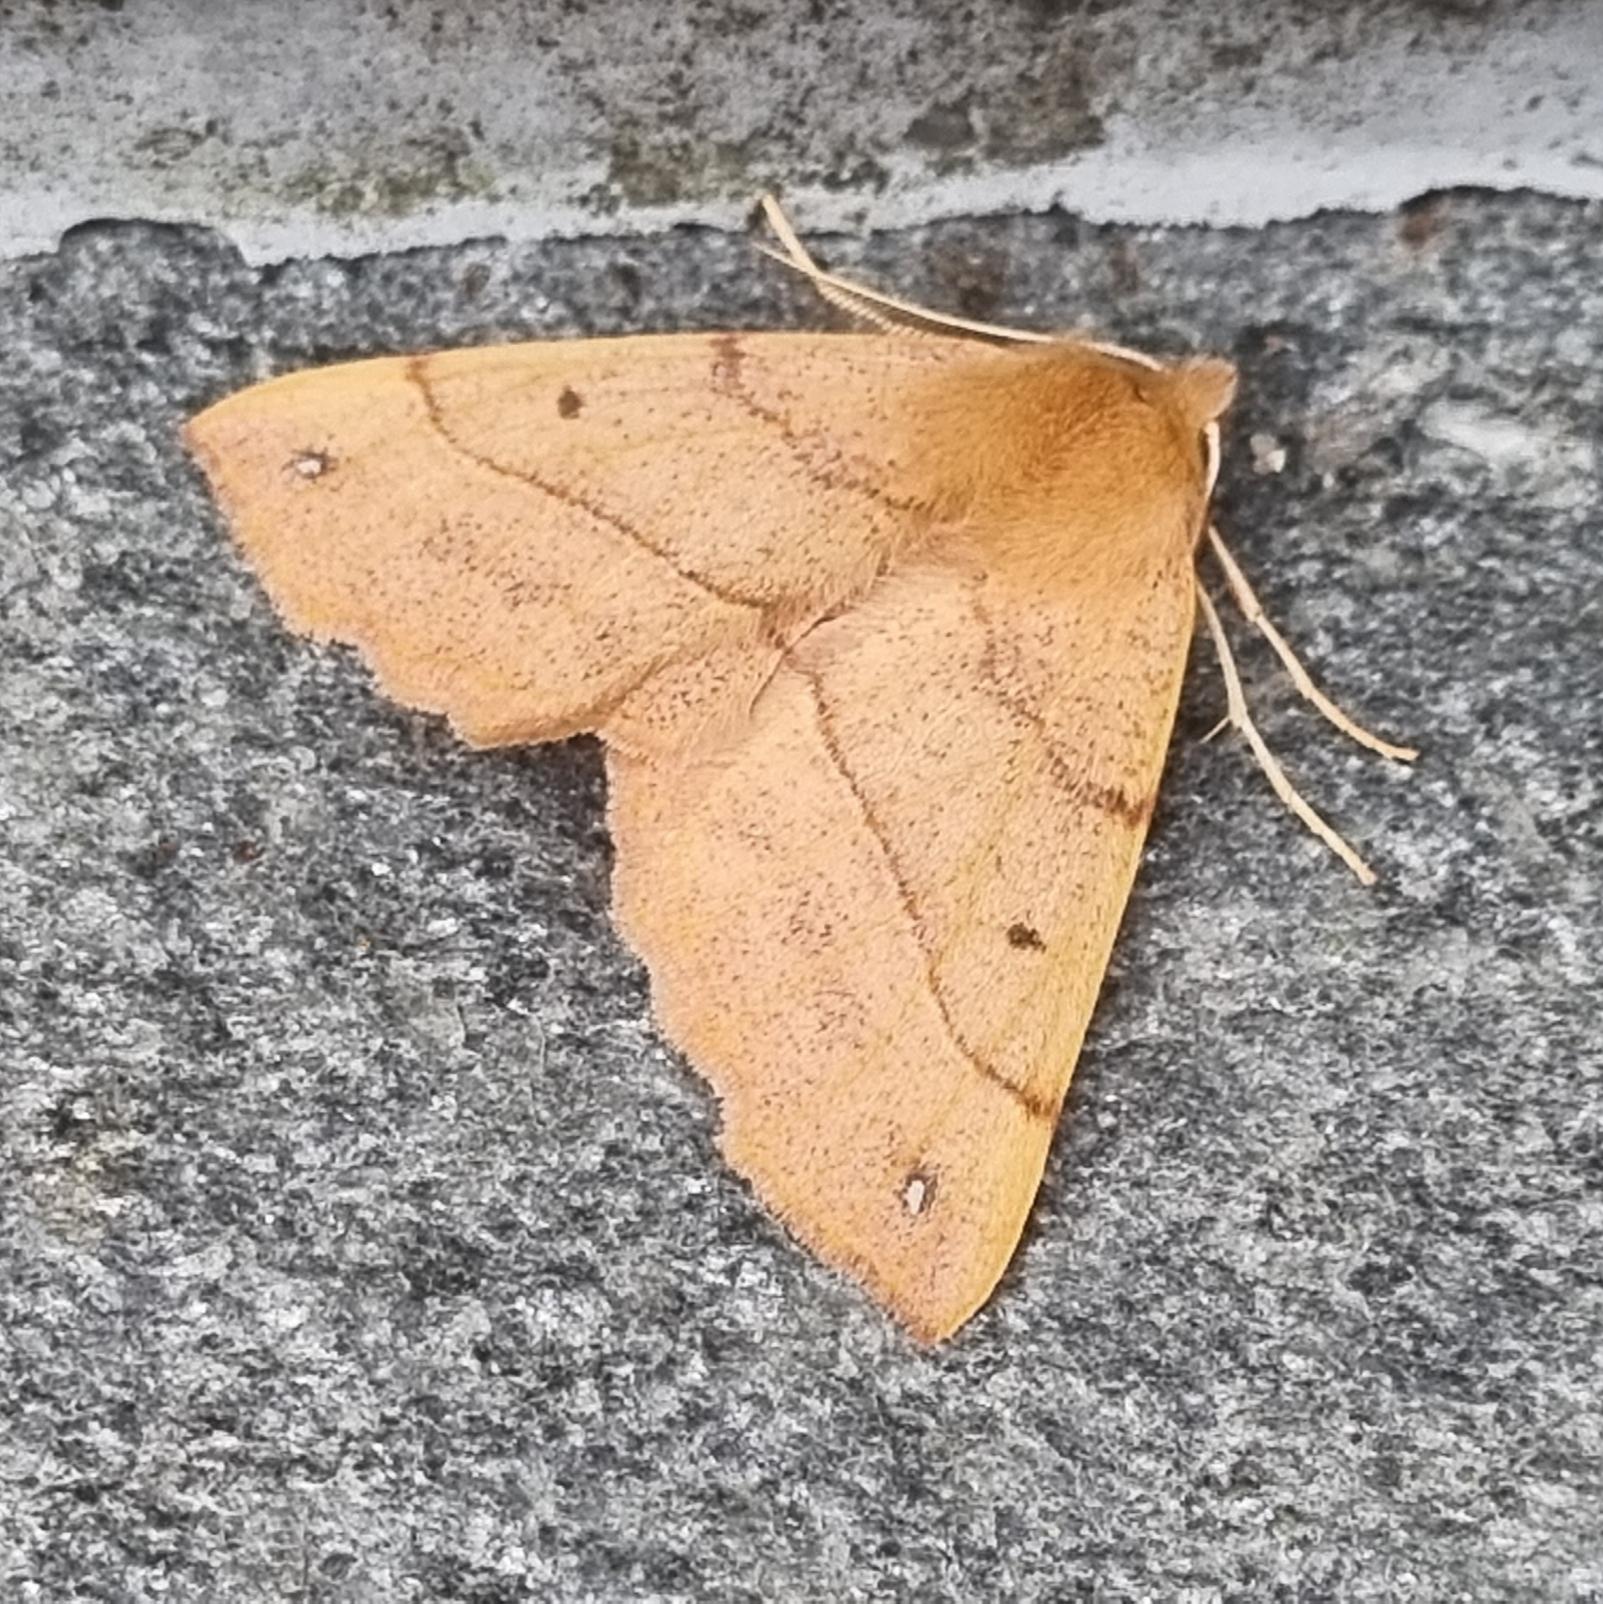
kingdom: Animalia
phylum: Arthropoda
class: Insecta
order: Lepidoptera
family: Geometridae
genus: Colotois
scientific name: Colotois pennaria
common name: Løvfaldsmåler
